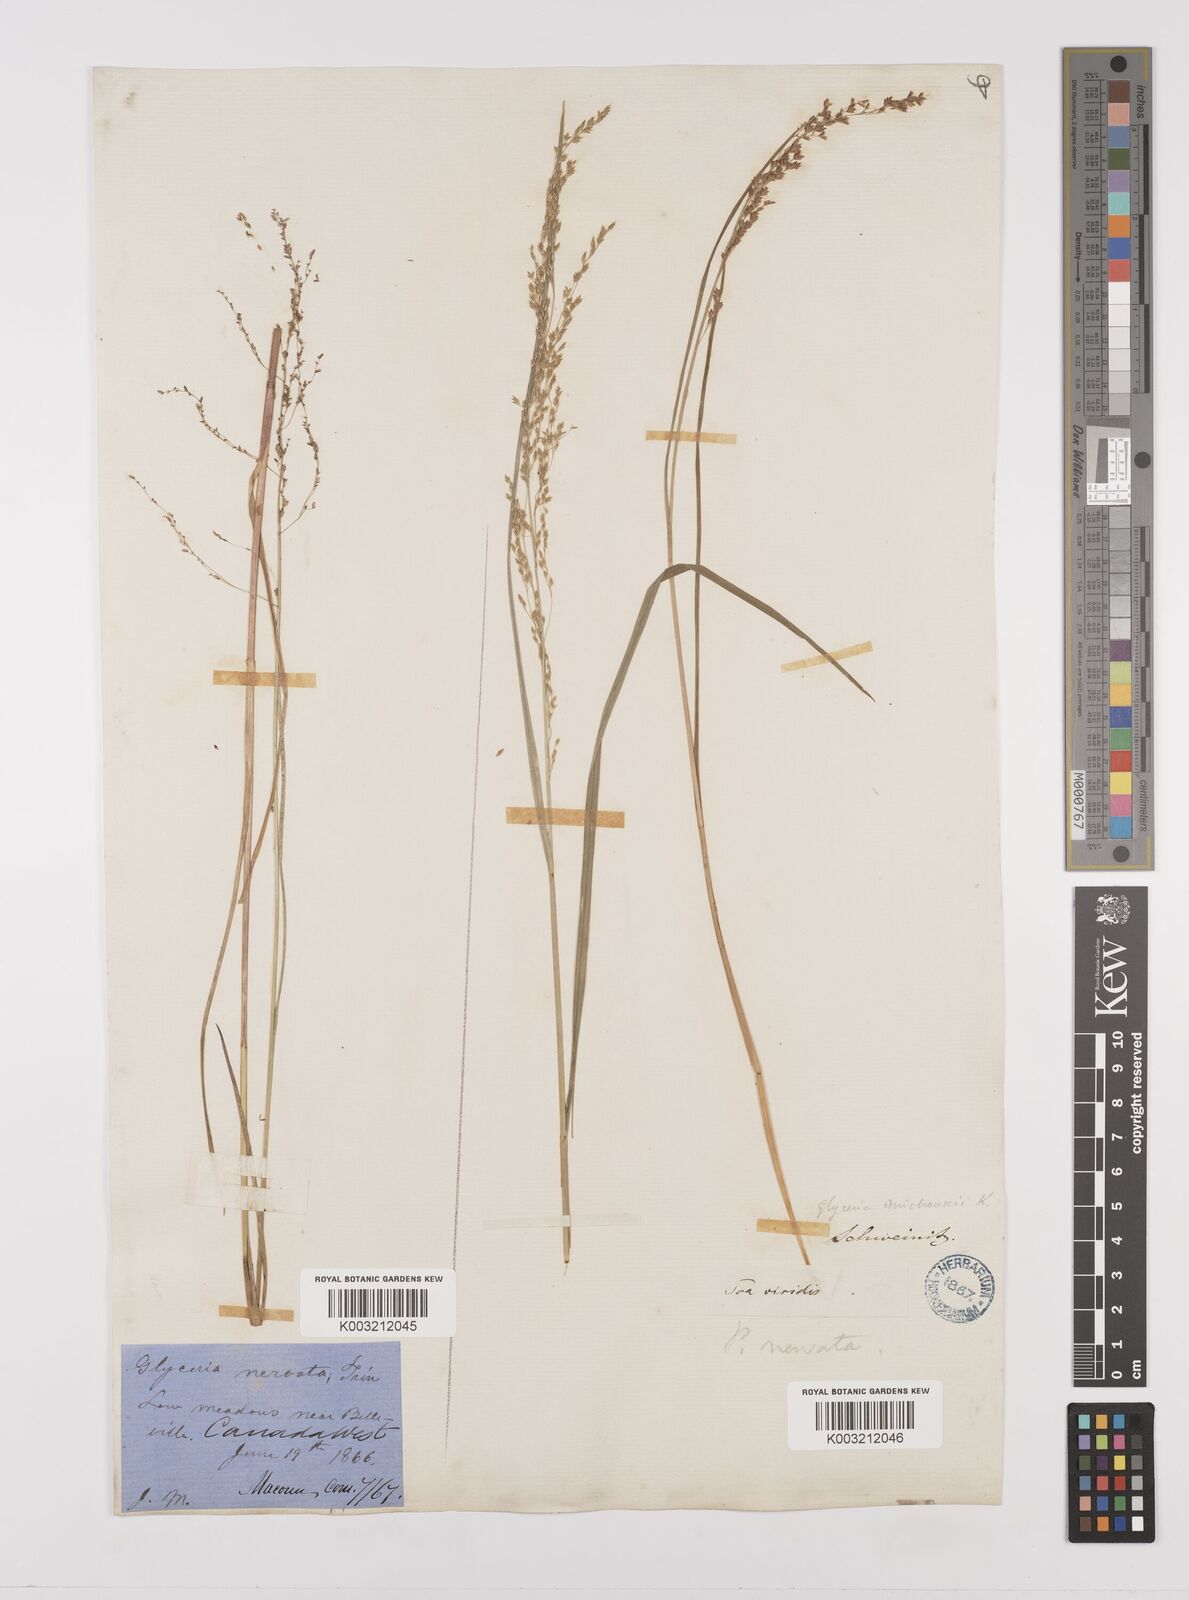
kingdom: Plantae
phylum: Tracheophyta
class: Liliopsida
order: Poales
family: Poaceae
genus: Glyceria
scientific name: Glyceria striata
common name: Fowl manna grass
